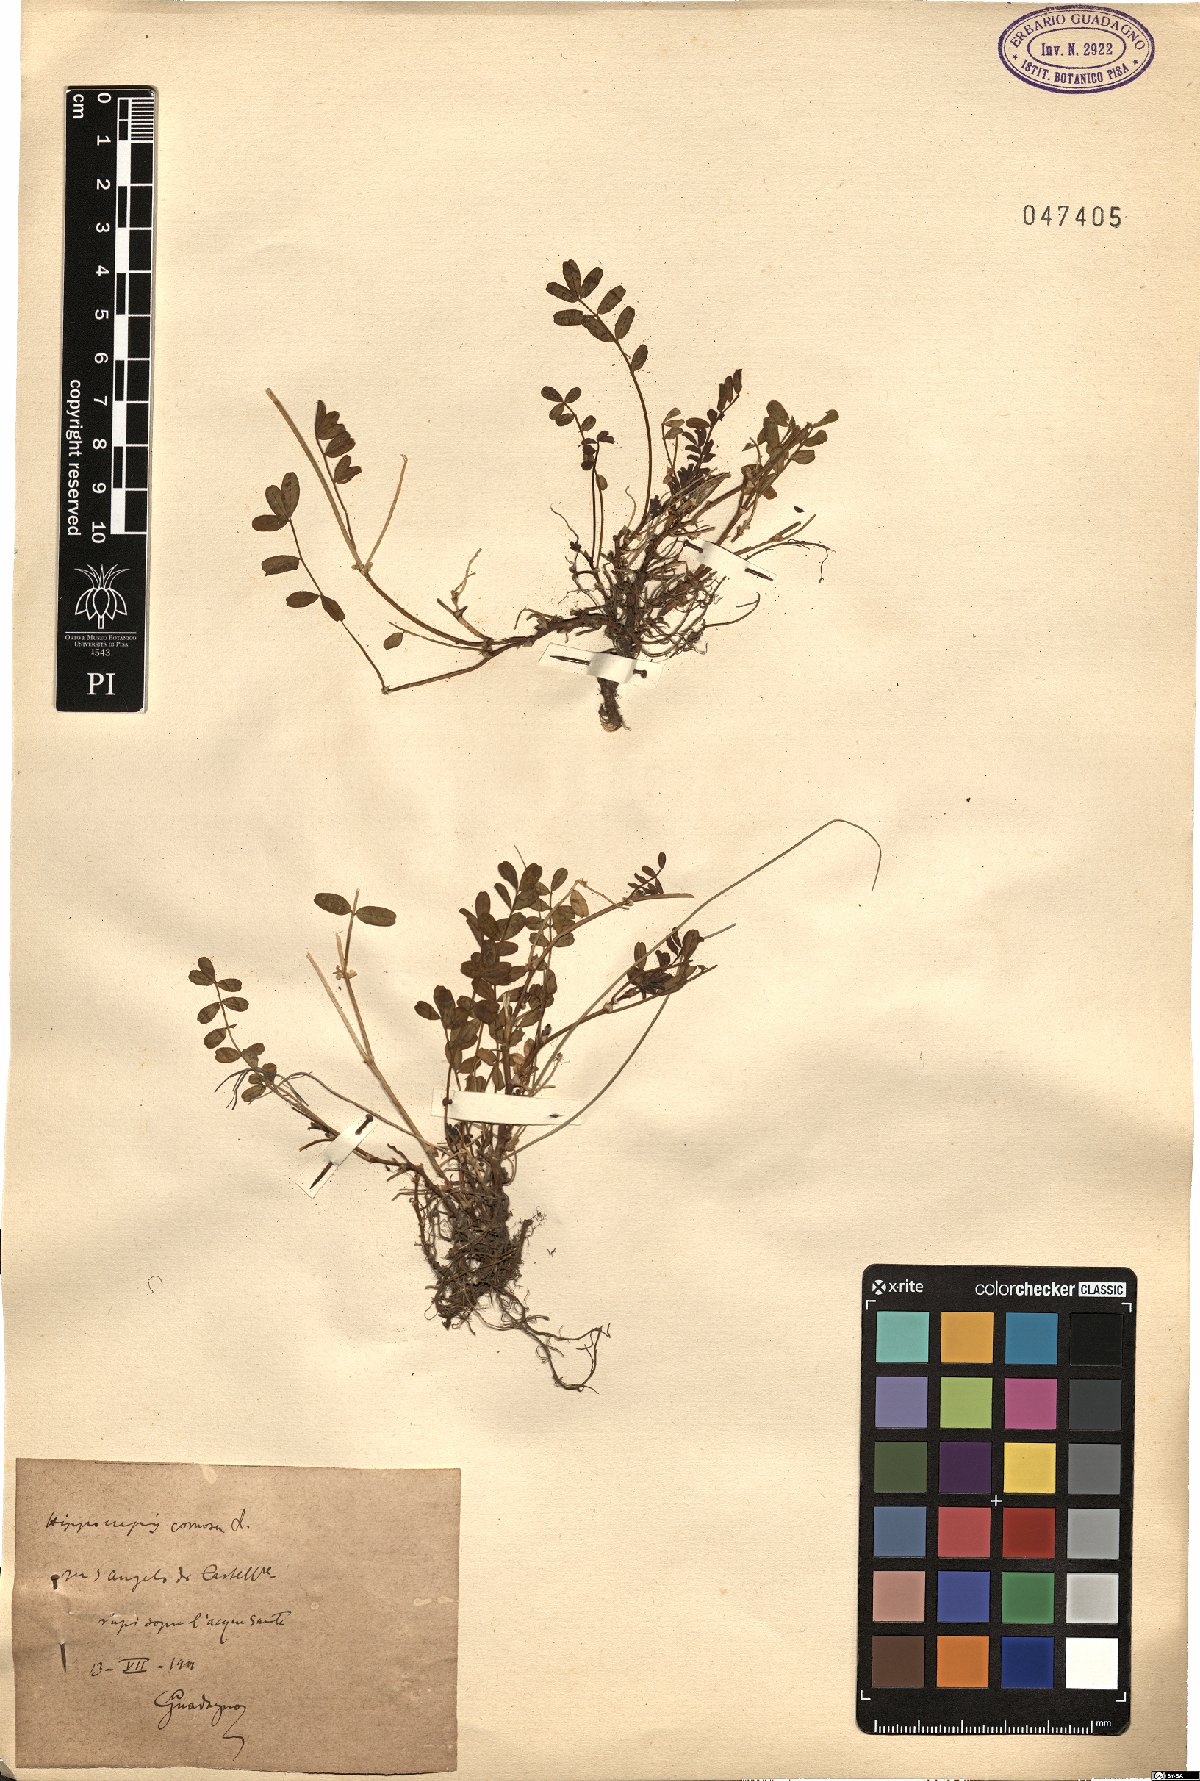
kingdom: Plantae
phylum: Tracheophyta
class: Magnoliopsida
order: Fabales
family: Fabaceae
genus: Hippocrepis
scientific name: Hippocrepis comosa
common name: Horseshoe vetch
